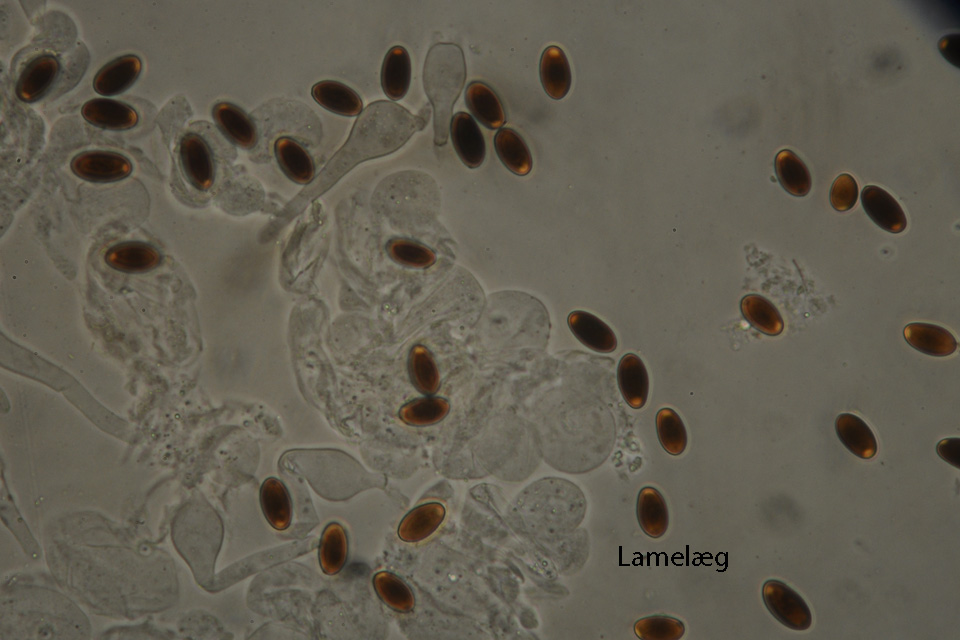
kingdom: Fungi
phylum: Basidiomycota
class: Agaricomycetes
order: Agaricales
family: Psathyrellaceae
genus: Tulosesus
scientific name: Tulosesus sclerocystidiosus
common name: brunhåret blækhat
